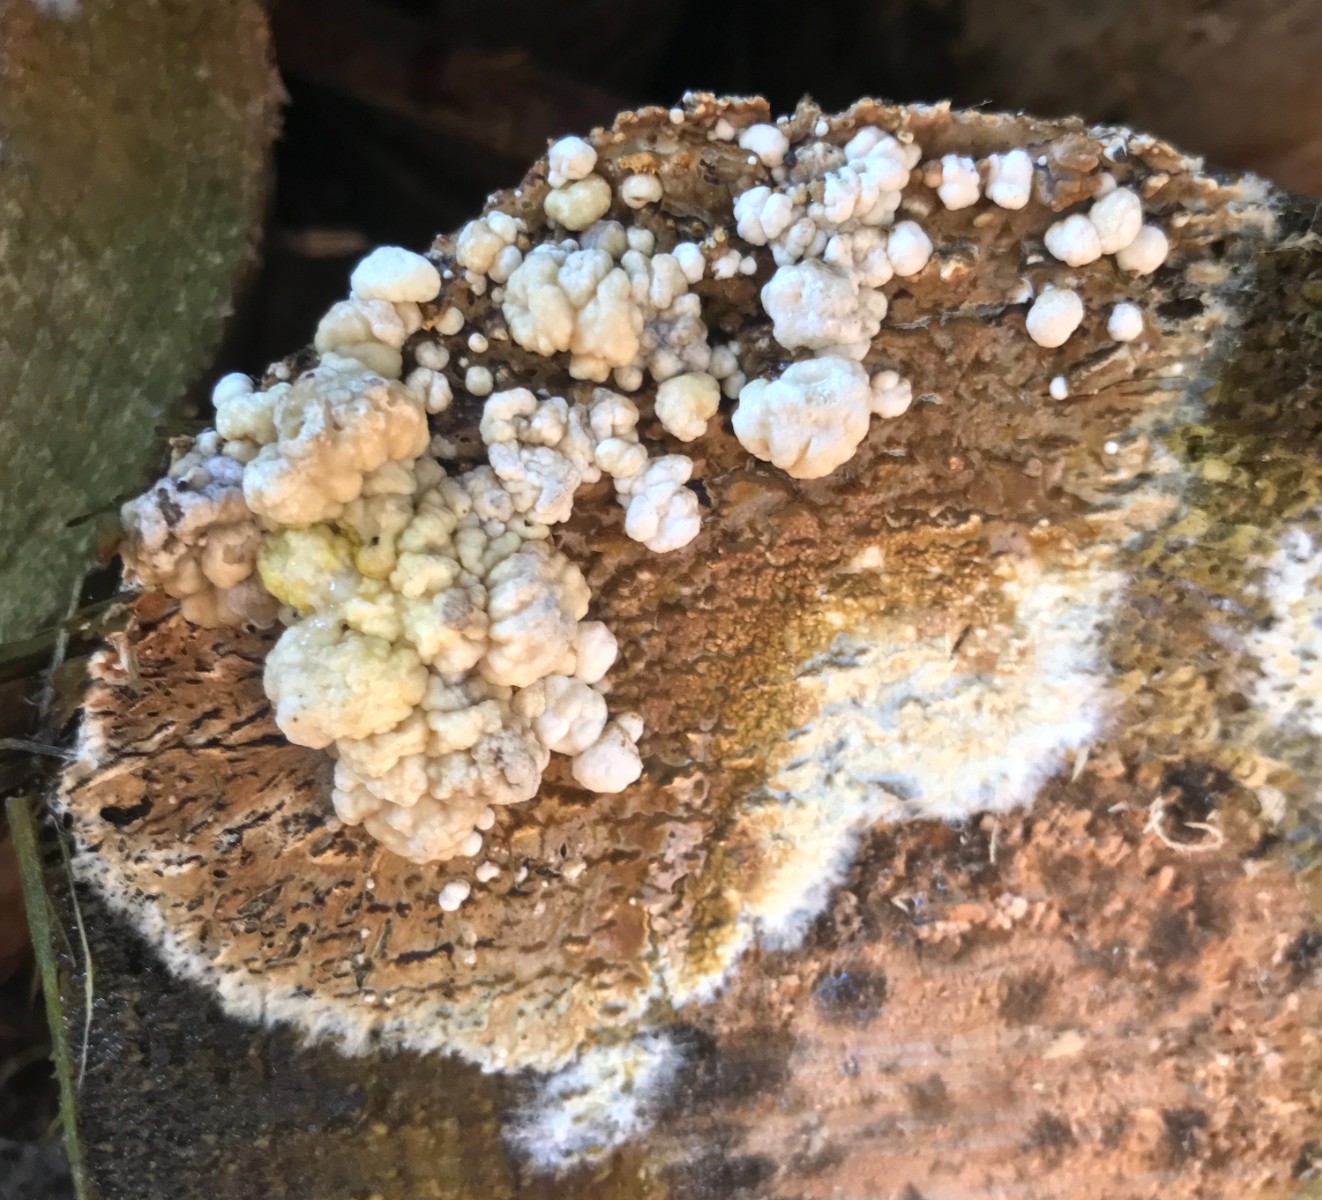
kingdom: Fungi
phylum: Ascomycota
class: Sordariomycetes
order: Xylariales
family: Hypoxylaceae
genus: Nodulisporium
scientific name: Nodulisporium cecidiogenes
